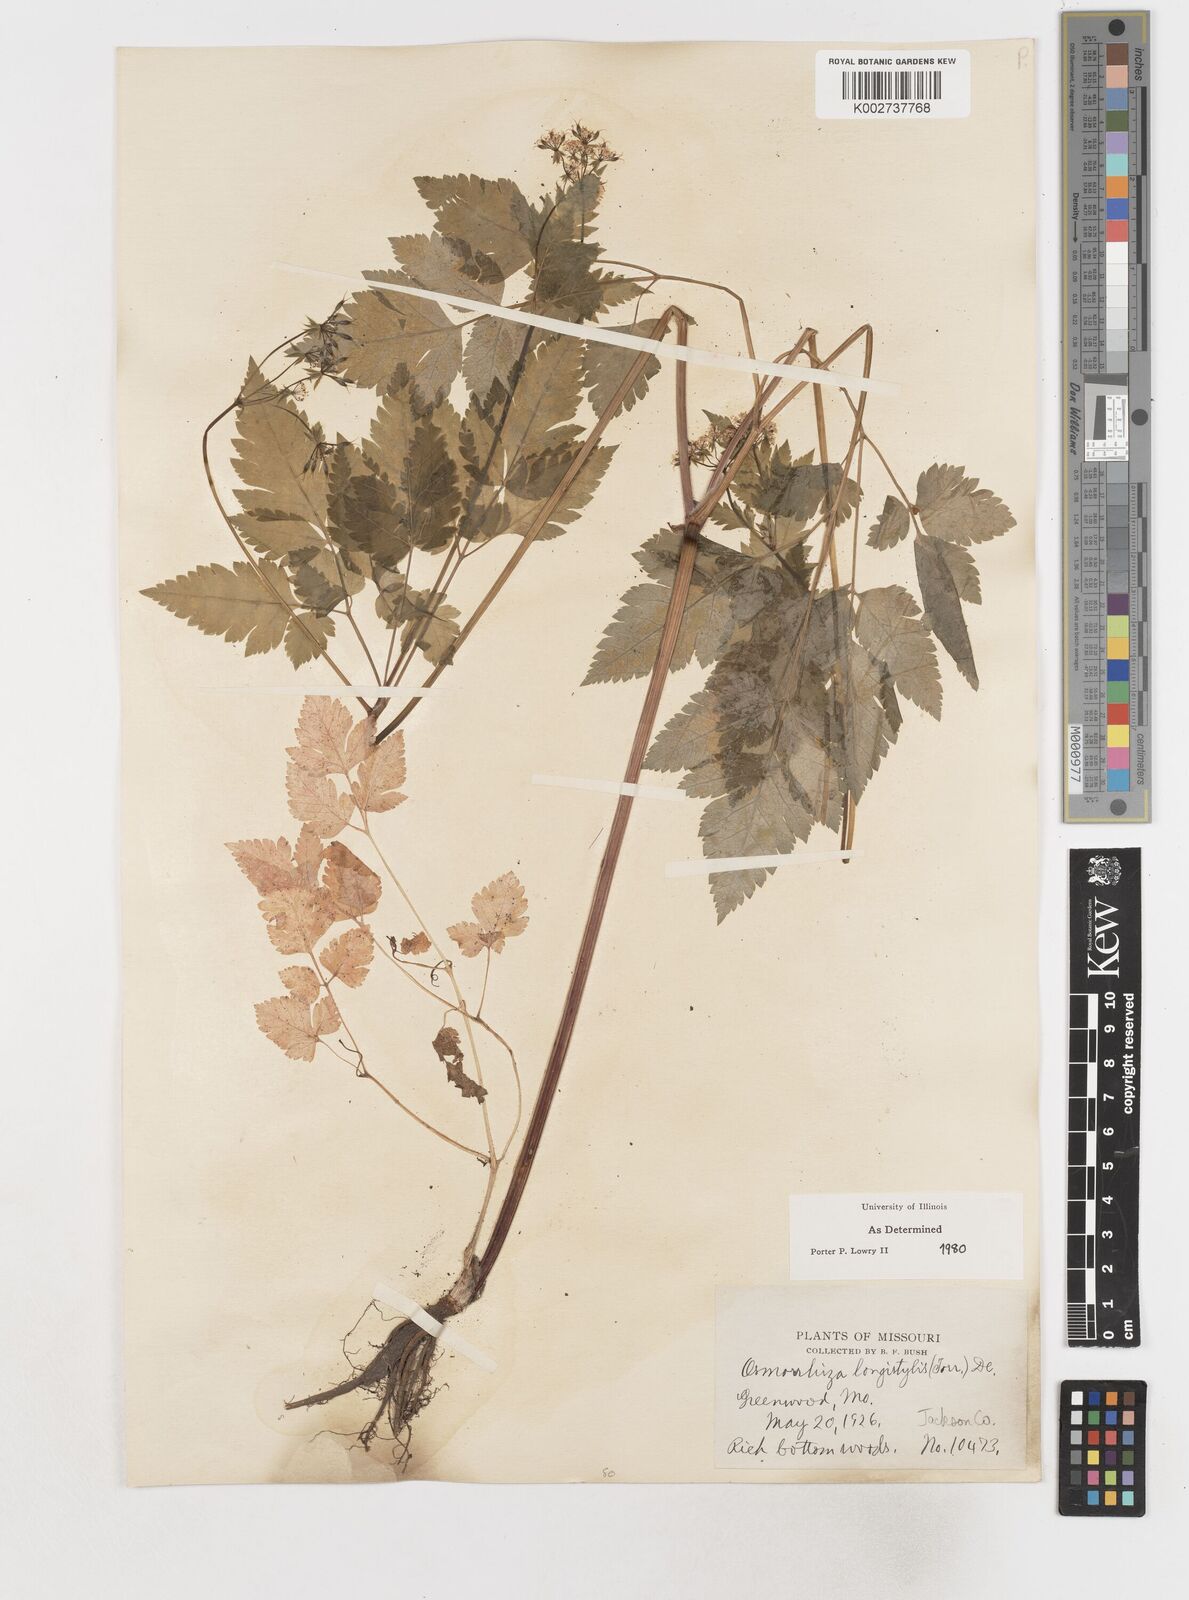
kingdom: Plantae
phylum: Tracheophyta
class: Magnoliopsida
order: Apiales
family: Apiaceae
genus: Osmorhiza
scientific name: Osmorhiza longistylis
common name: Smooth sweet cicely
